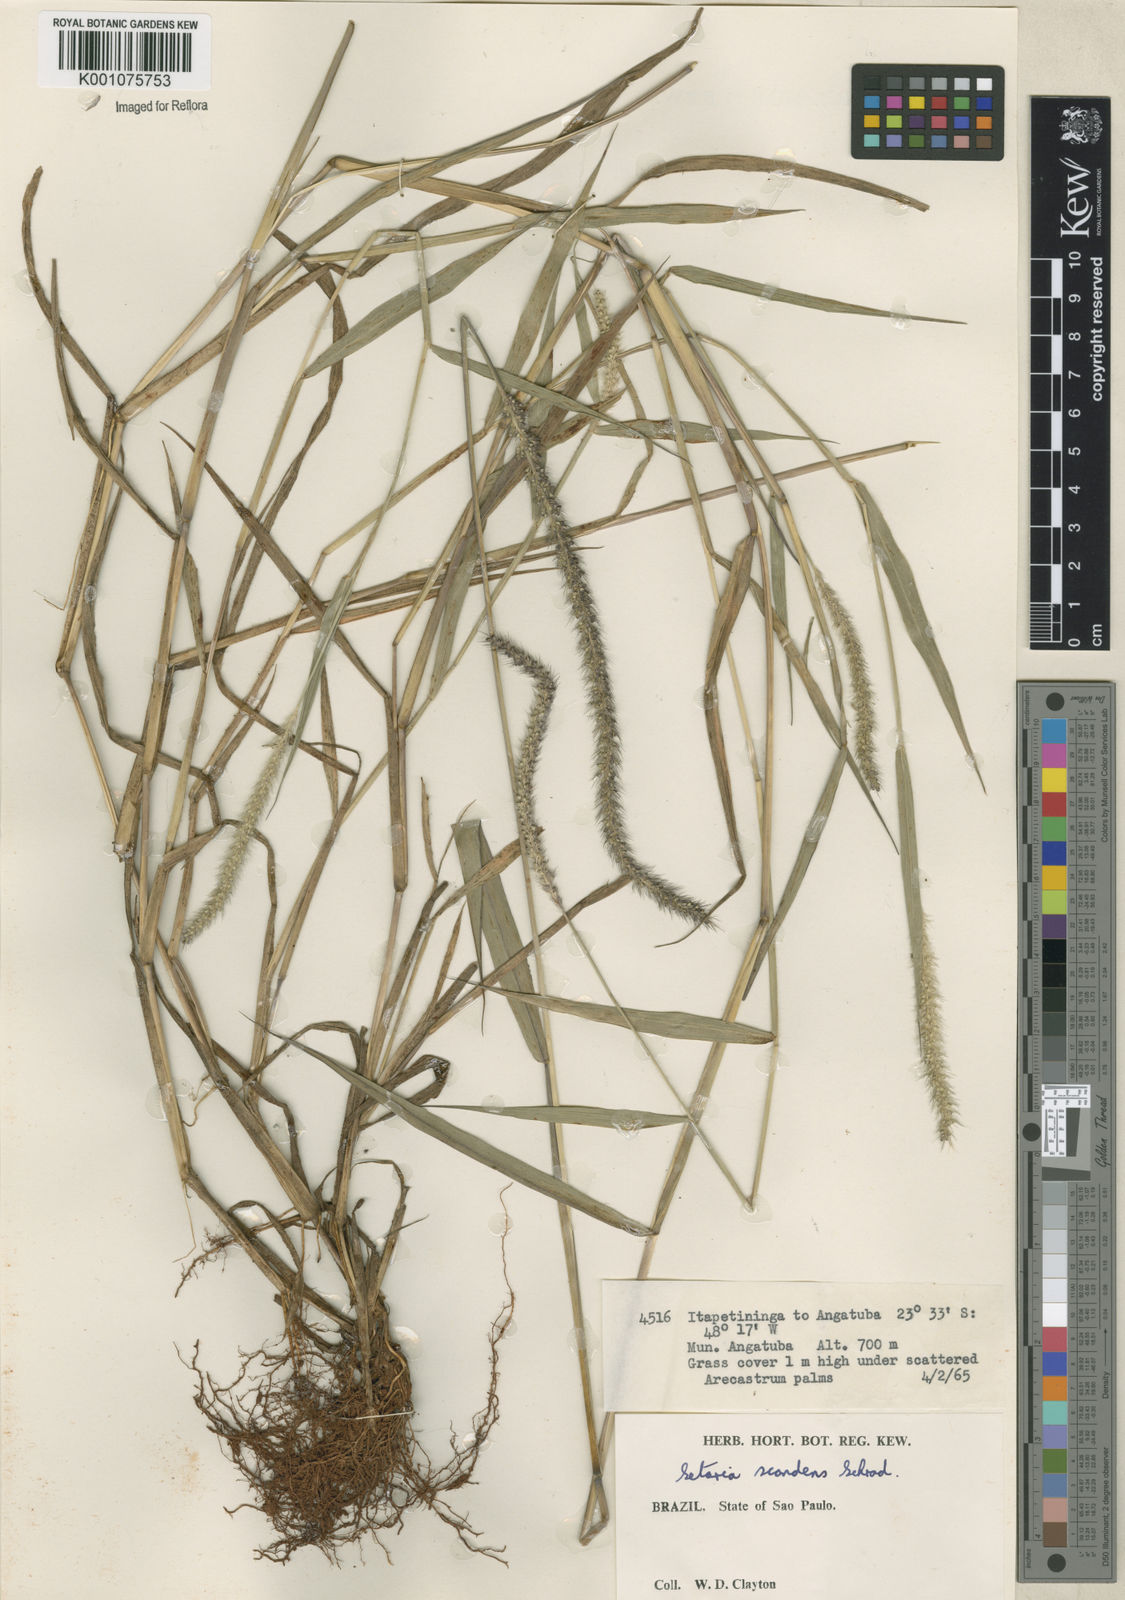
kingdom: Plantae
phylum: Tracheophyta
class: Liliopsida
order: Poales
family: Poaceae
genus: Setaria
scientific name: Setaria scandens
